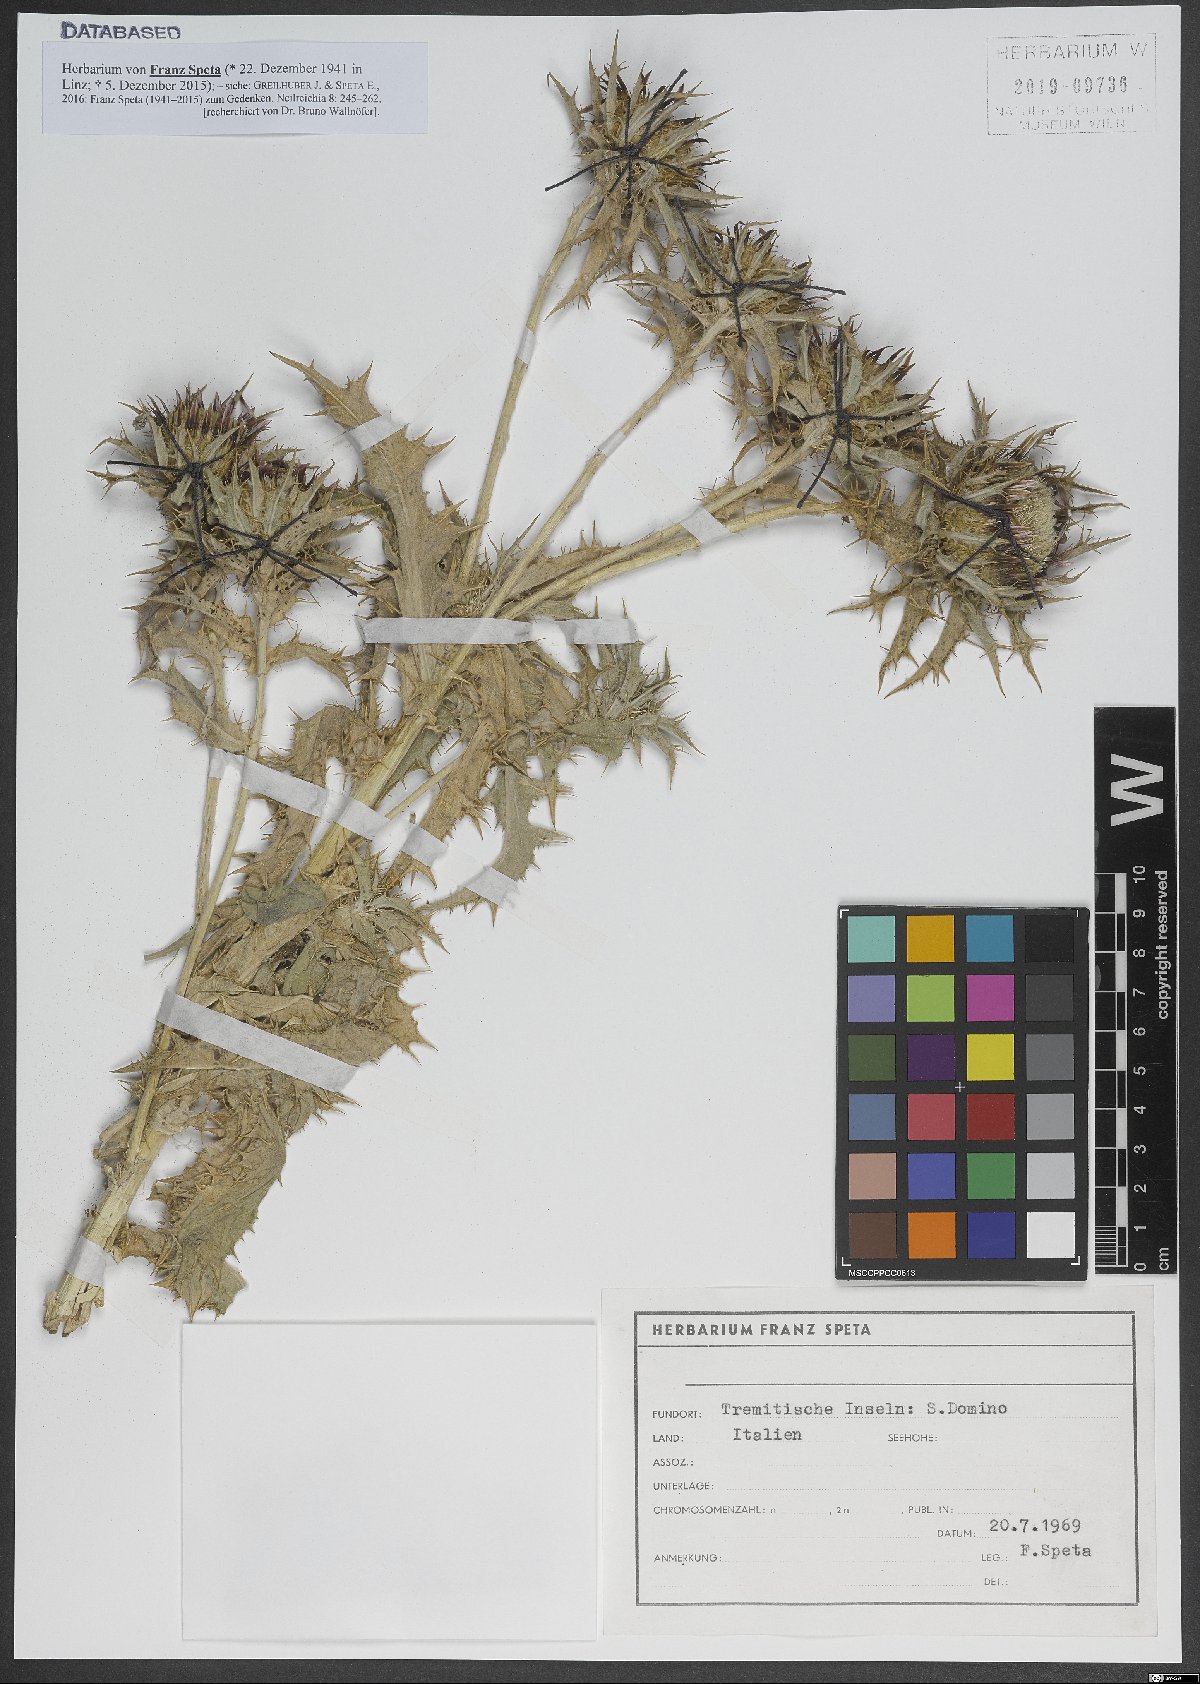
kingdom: Plantae
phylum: Tracheophyta
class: Magnoliopsida
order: Asterales
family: Asteraceae
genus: Carlina
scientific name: Carlina lanata
